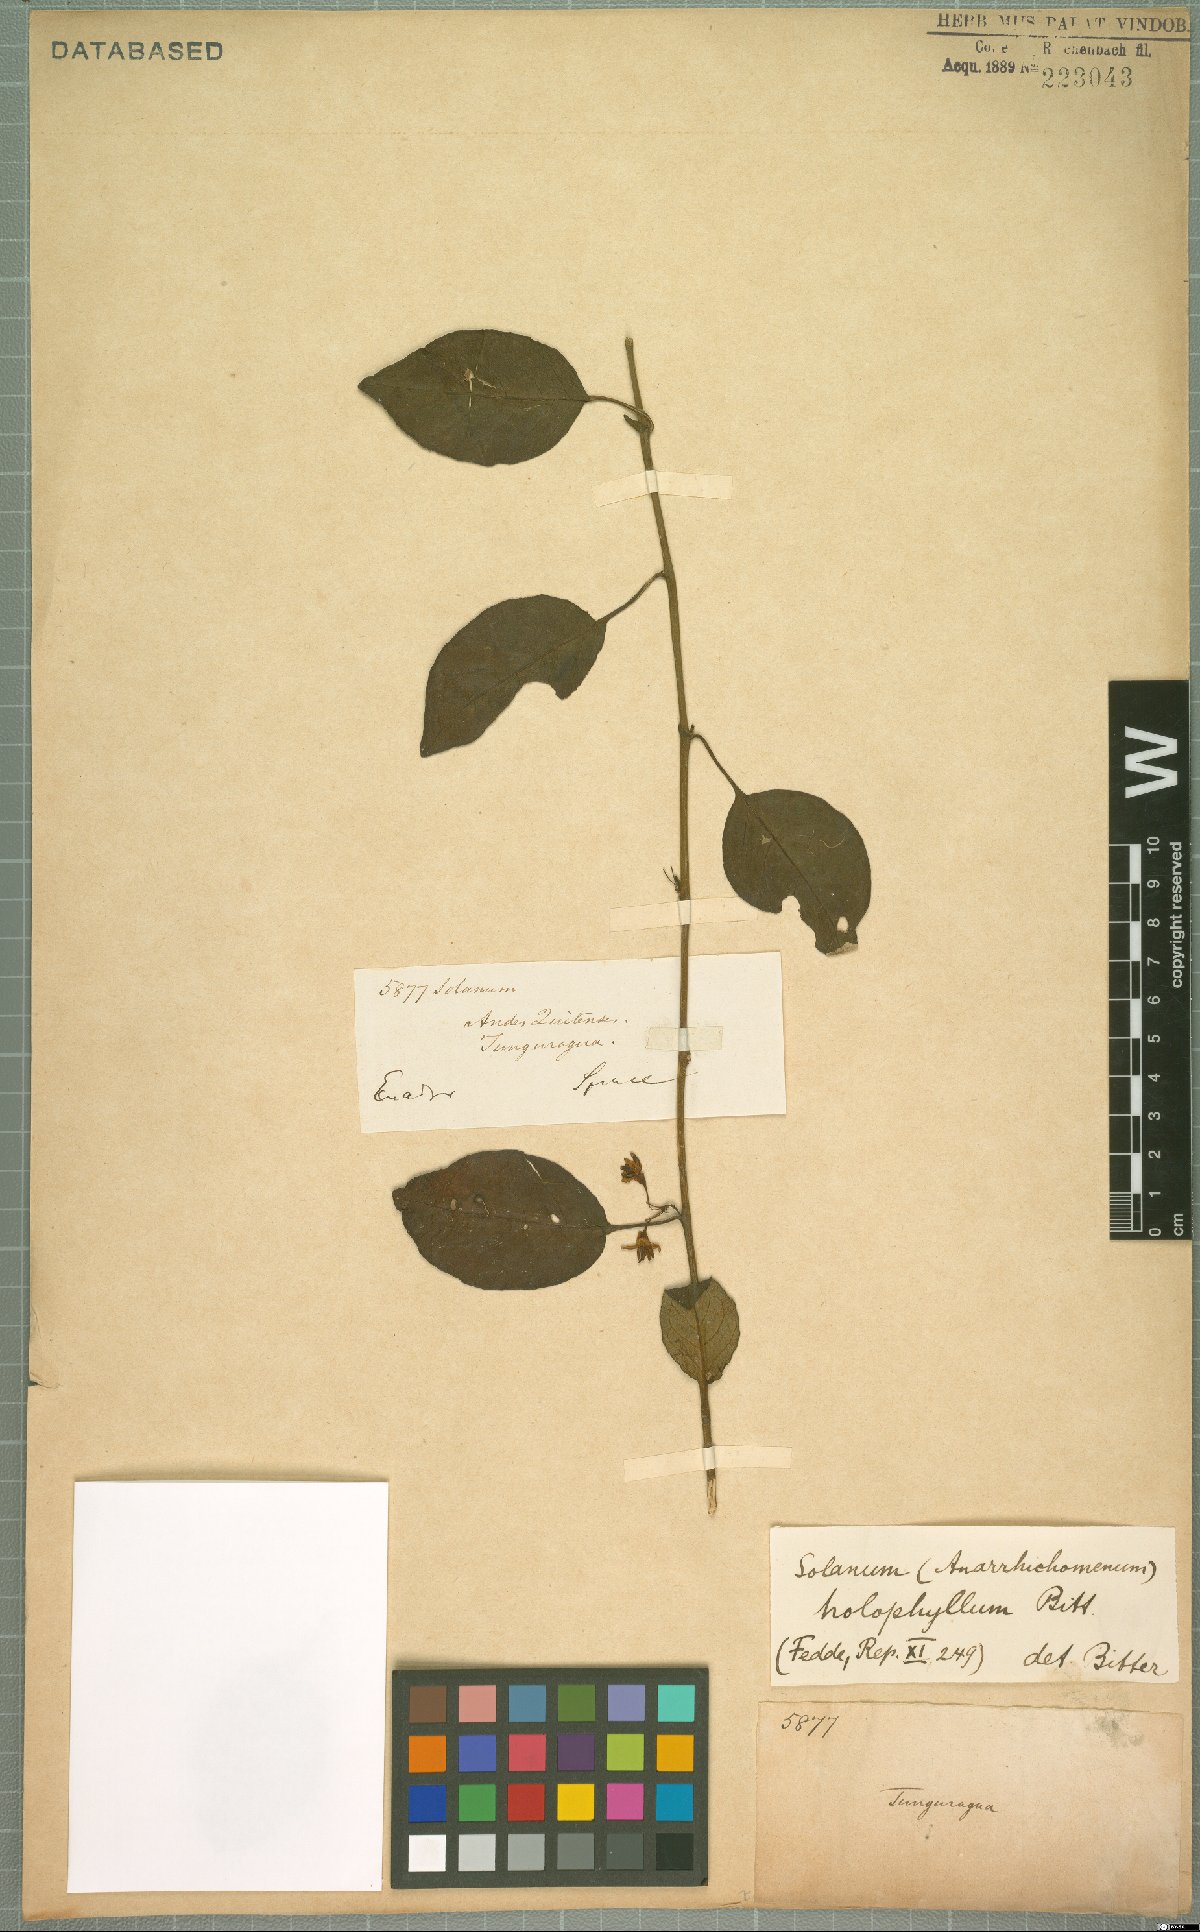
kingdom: Plantae
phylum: Tracheophyta
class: Magnoliopsida
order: Solanales
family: Solanaceae
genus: Solanum
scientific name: Solanum brevifolium
